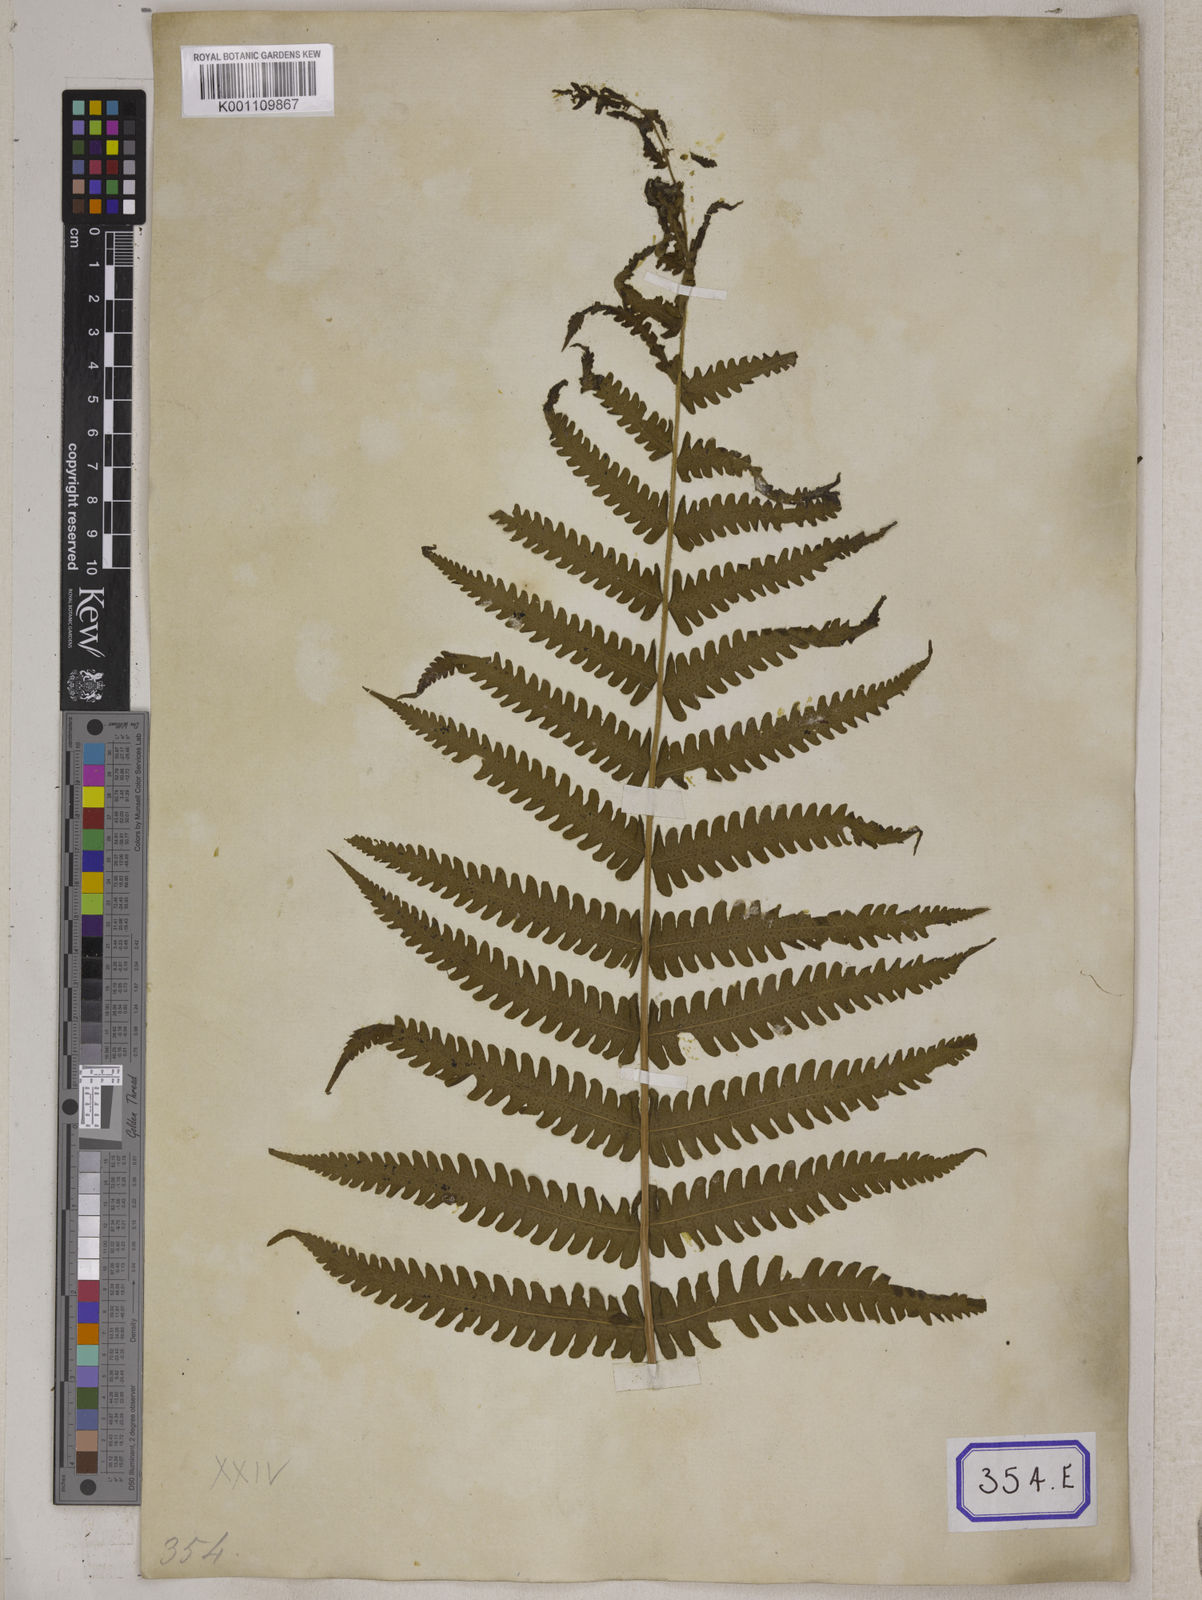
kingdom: Plantae
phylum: Tracheophyta
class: Polypodiopsida
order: Polypodiales
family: Tectariaceae
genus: Tectaria
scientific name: Tectaria Aspidium spec
